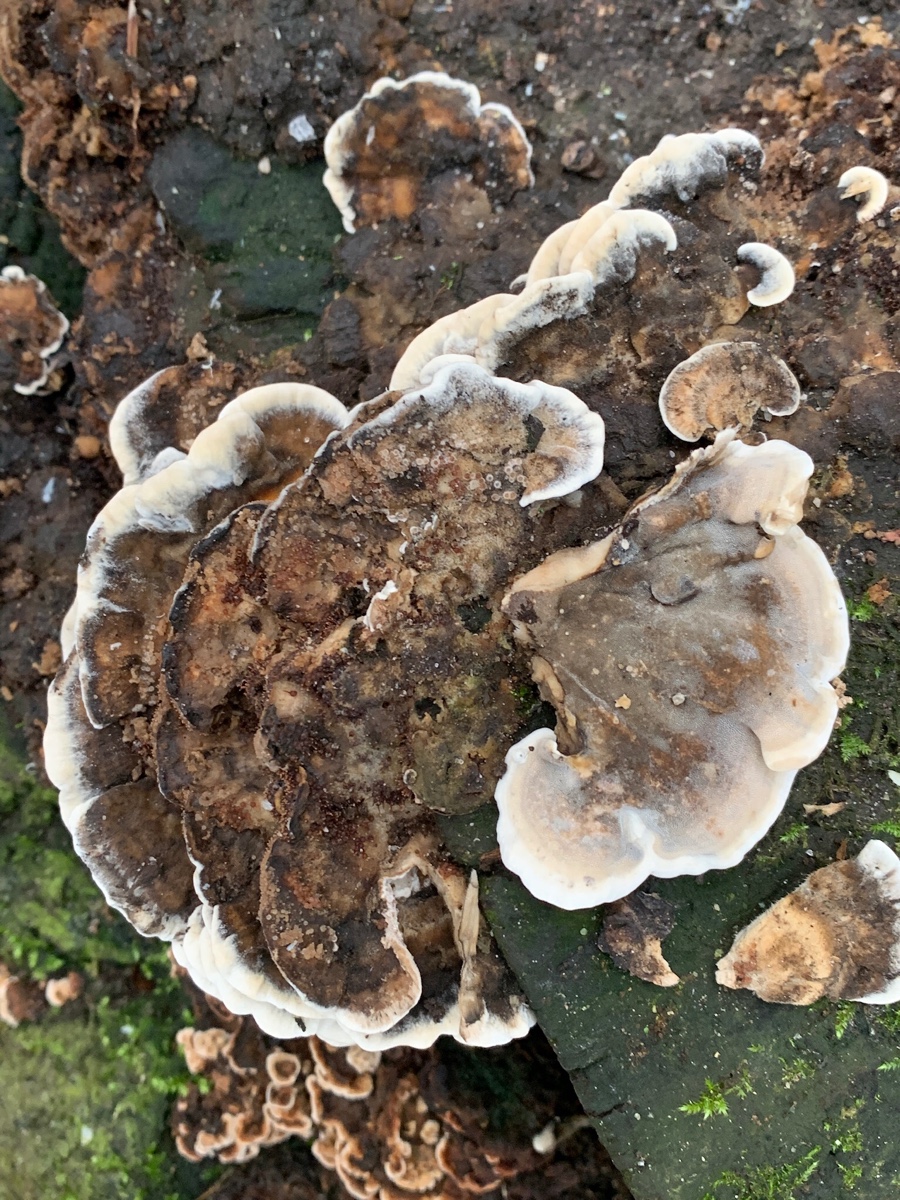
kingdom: Fungi
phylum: Basidiomycota
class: Agaricomycetes
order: Polyporales
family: Phanerochaetaceae
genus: Bjerkandera
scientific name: Bjerkandera adusta
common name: sveden sodporesvamp
